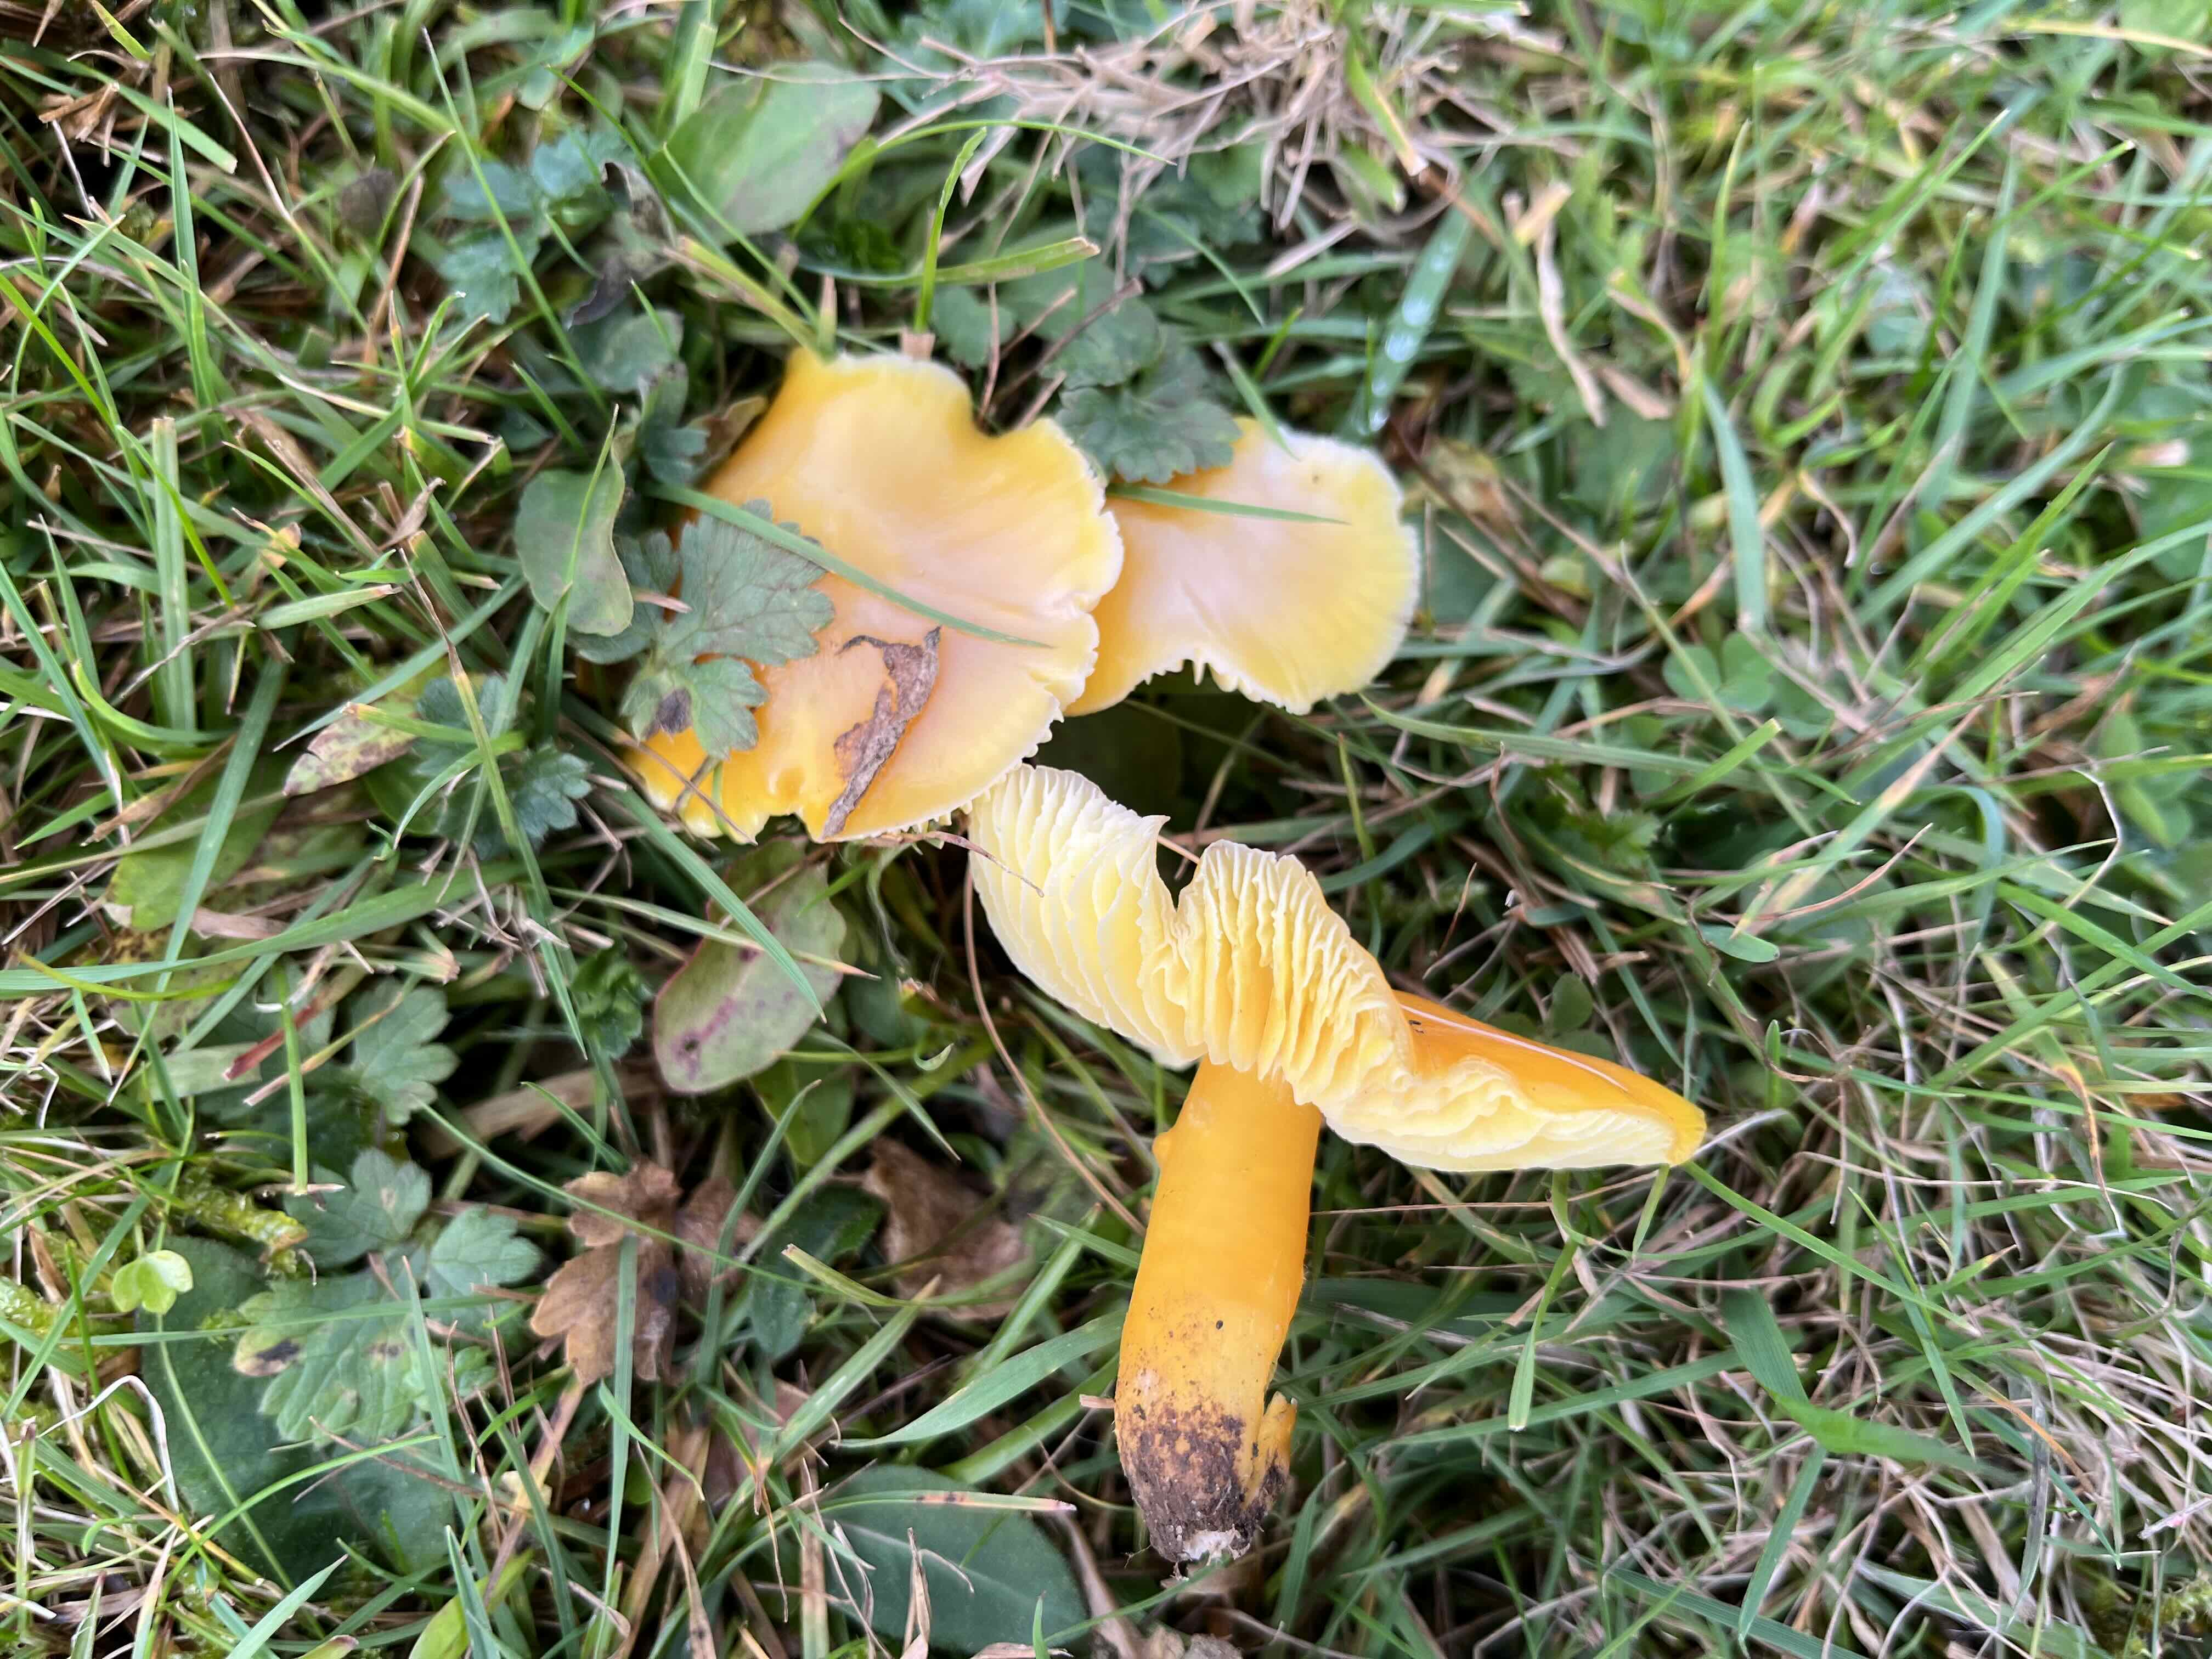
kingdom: Fungi
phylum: Basidiomycota
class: Agaricomycetes
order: Agaricales
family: Hygrophoraceae
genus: Hygrocybe
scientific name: Hygrocybe chlorophana
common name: gul vokshat
